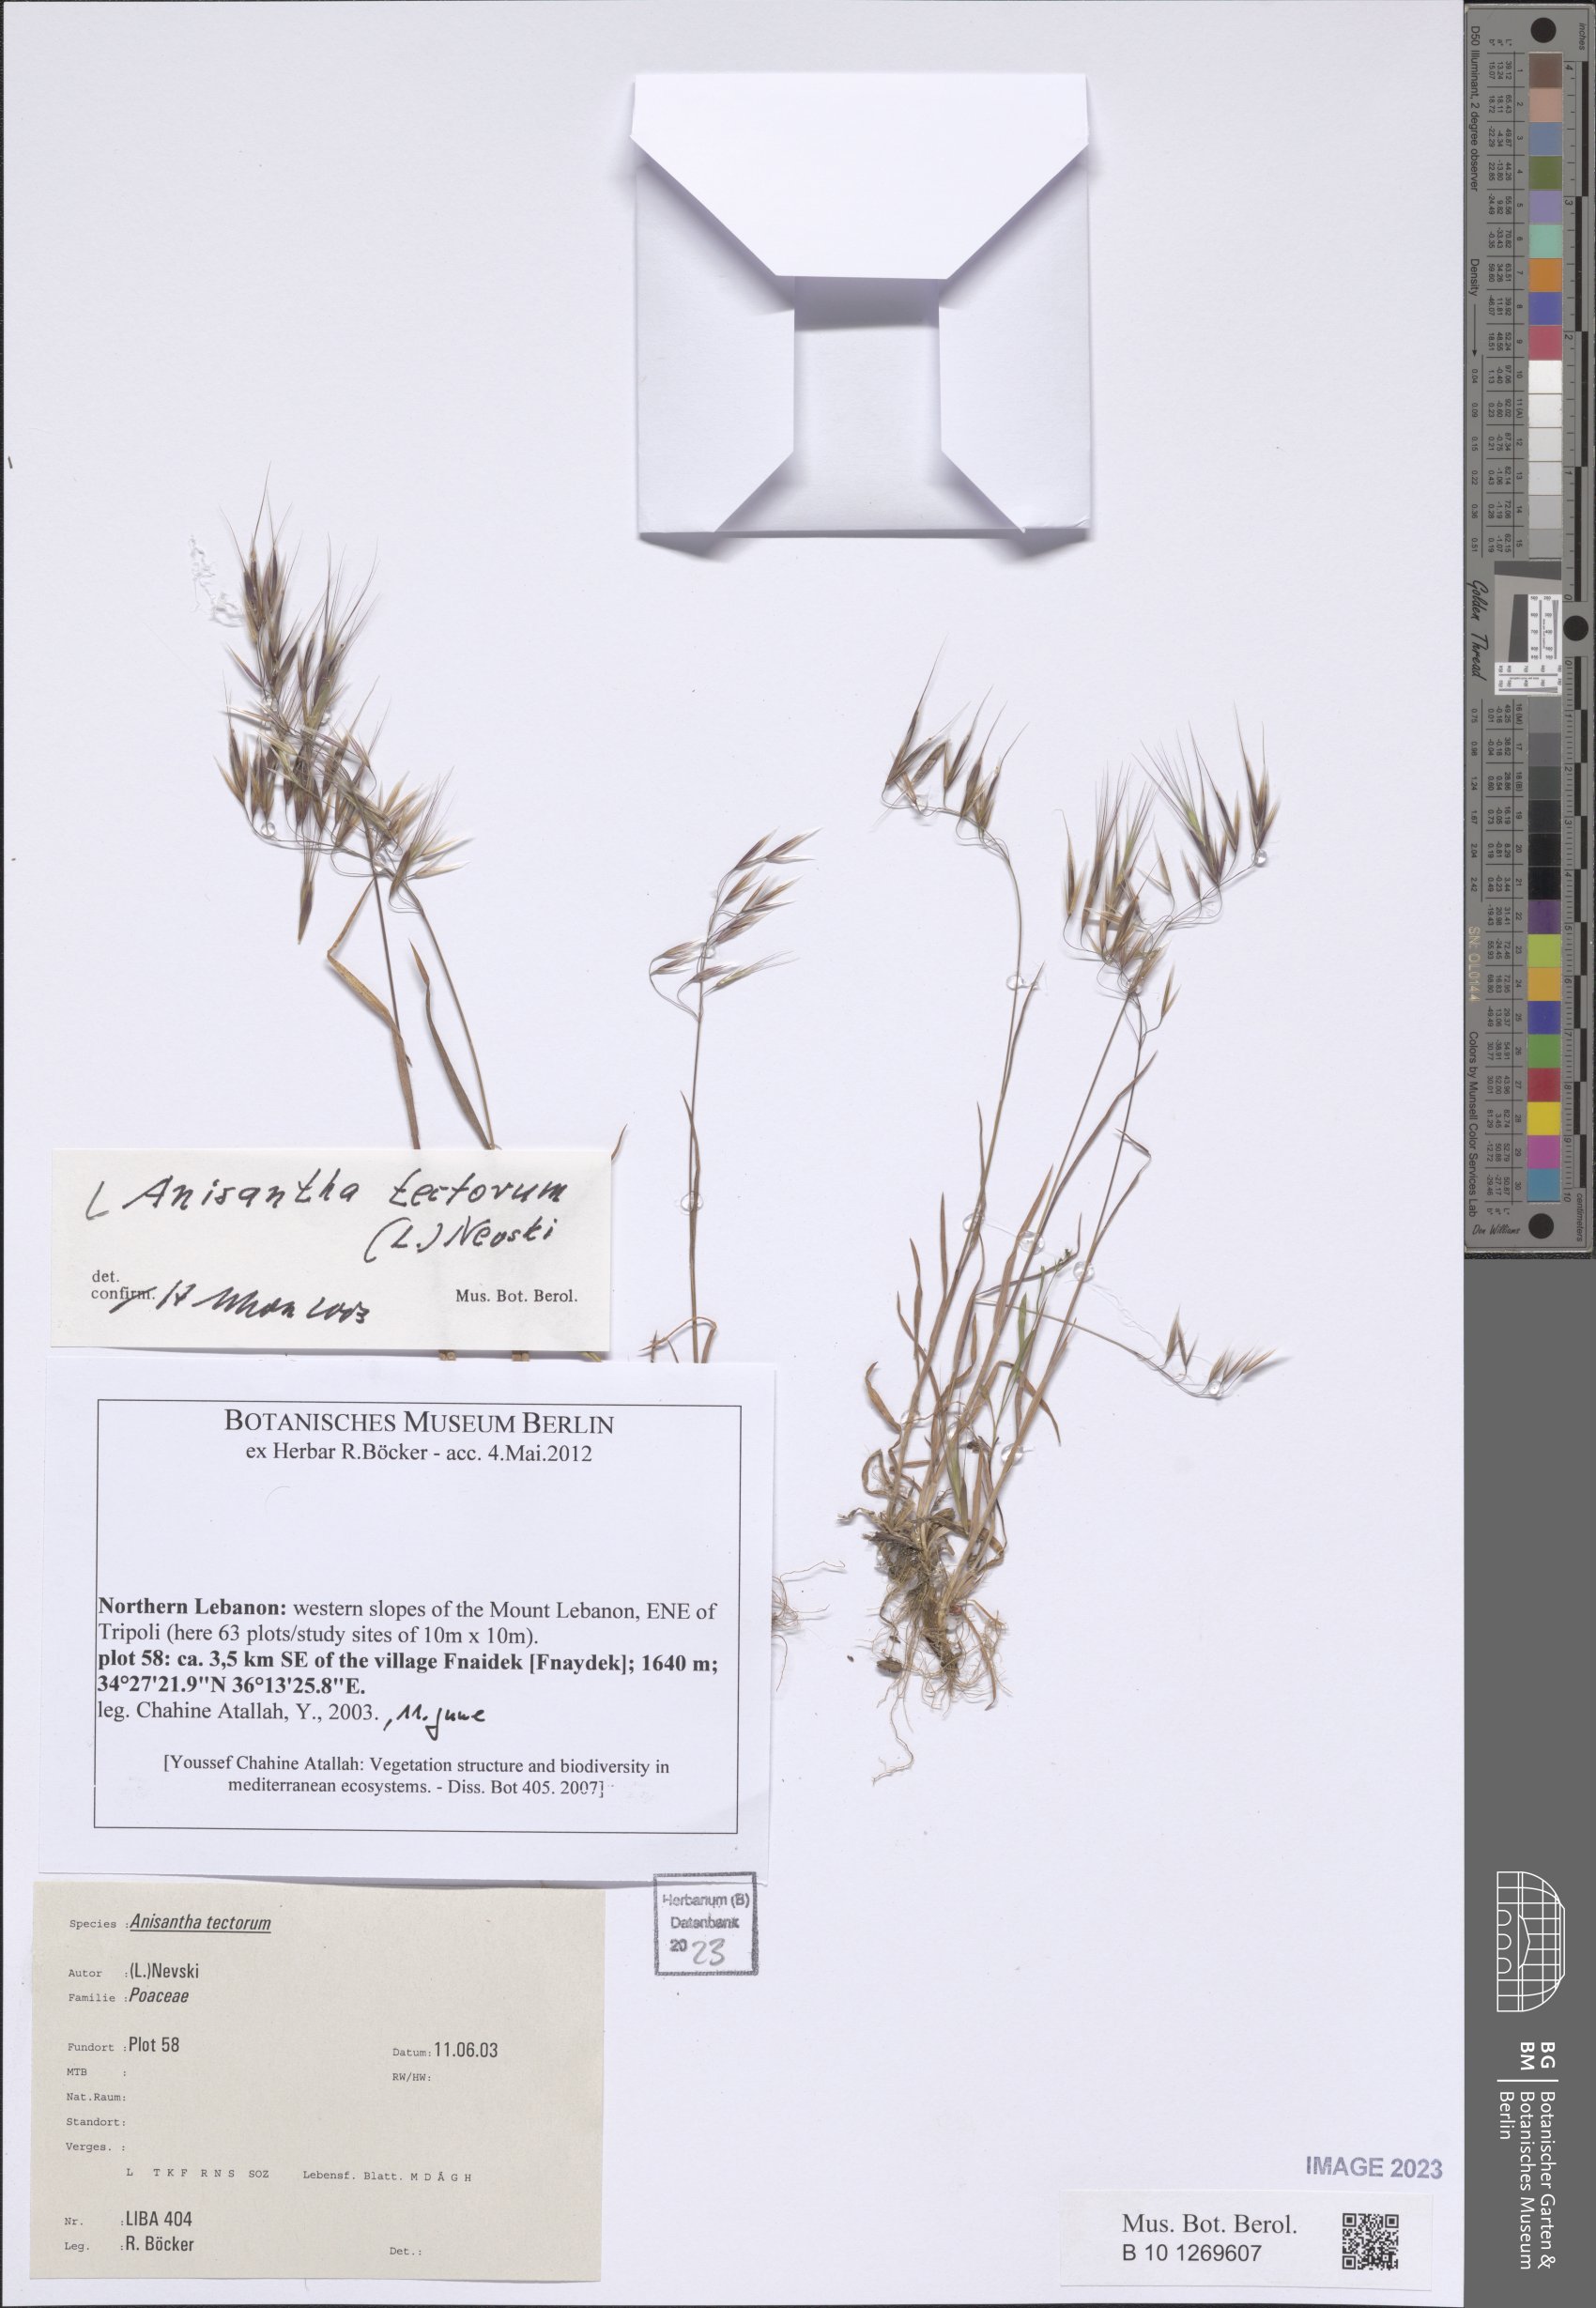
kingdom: Plantae
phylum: Tracheophyta
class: Liliopsida
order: Poales
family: Poaceae
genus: Bromus
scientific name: Bromus tectorum
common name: Cheatgrass
